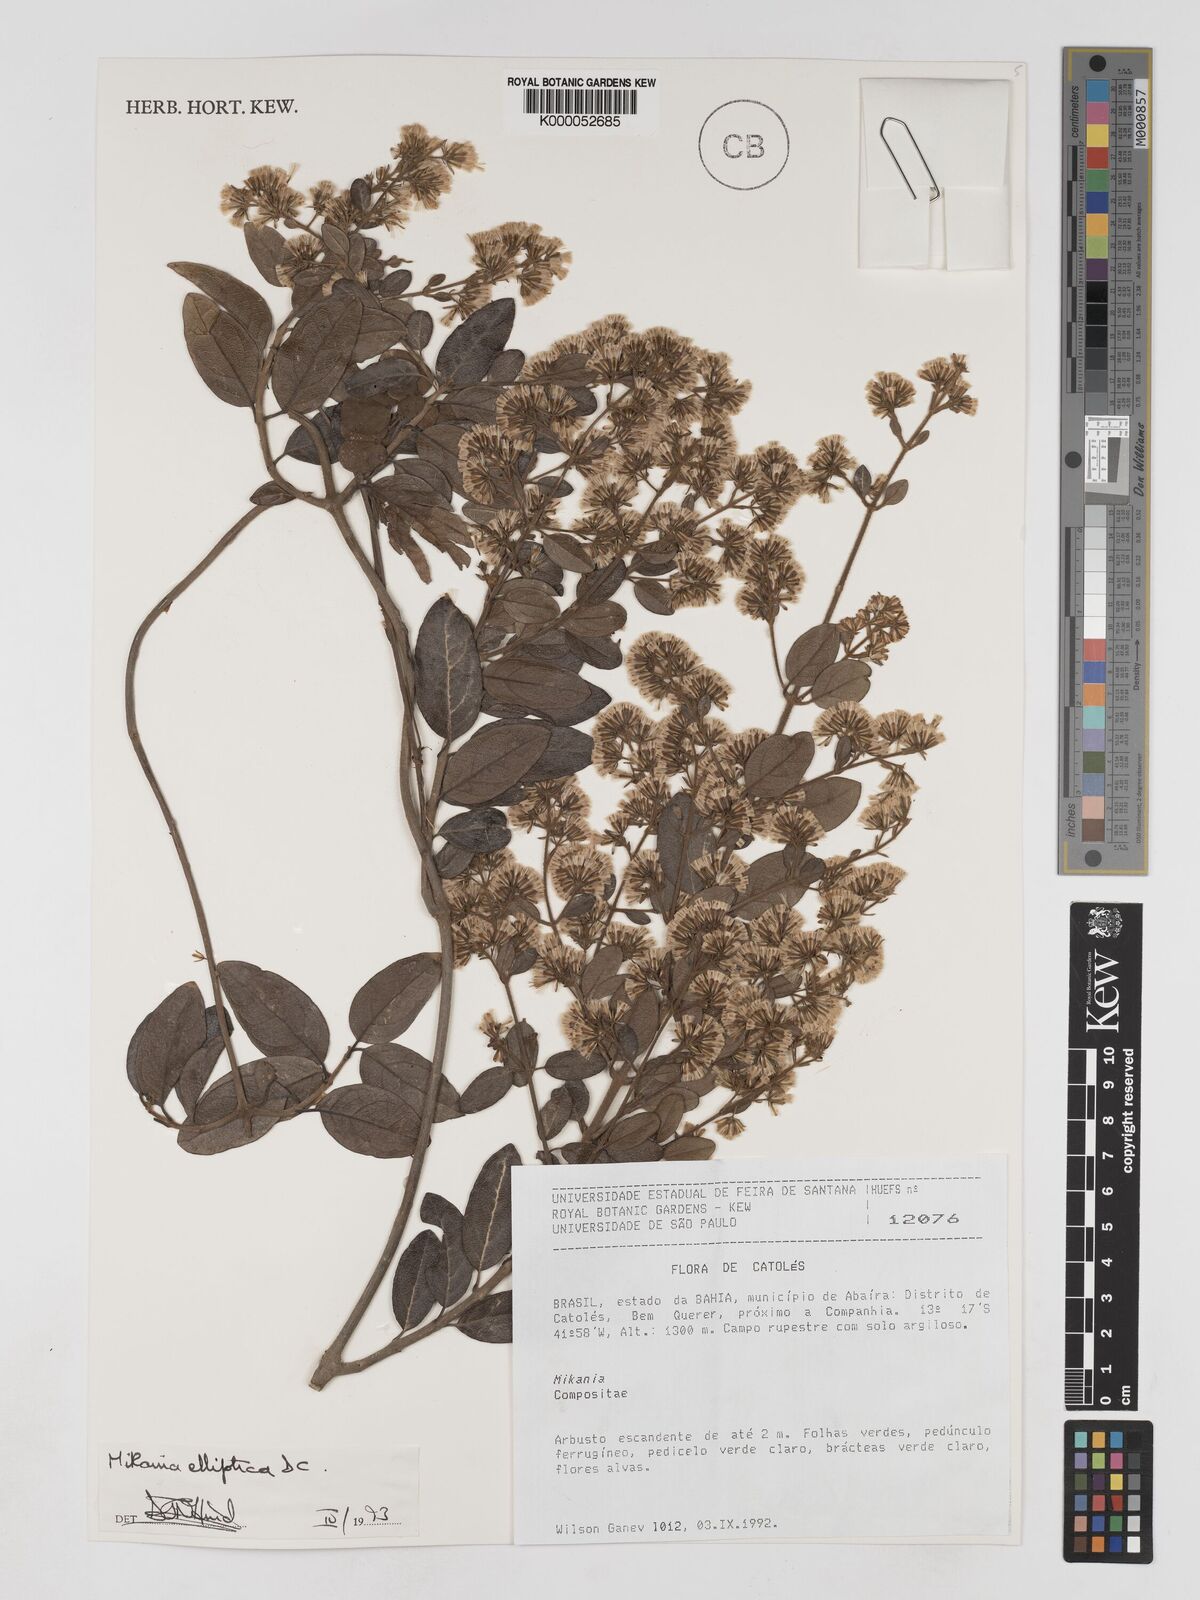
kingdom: Plantae
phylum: Tracheophyta
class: Magnoliopsida
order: Asterales
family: Asteraceae
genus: Mikania
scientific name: Mikania elliptica
